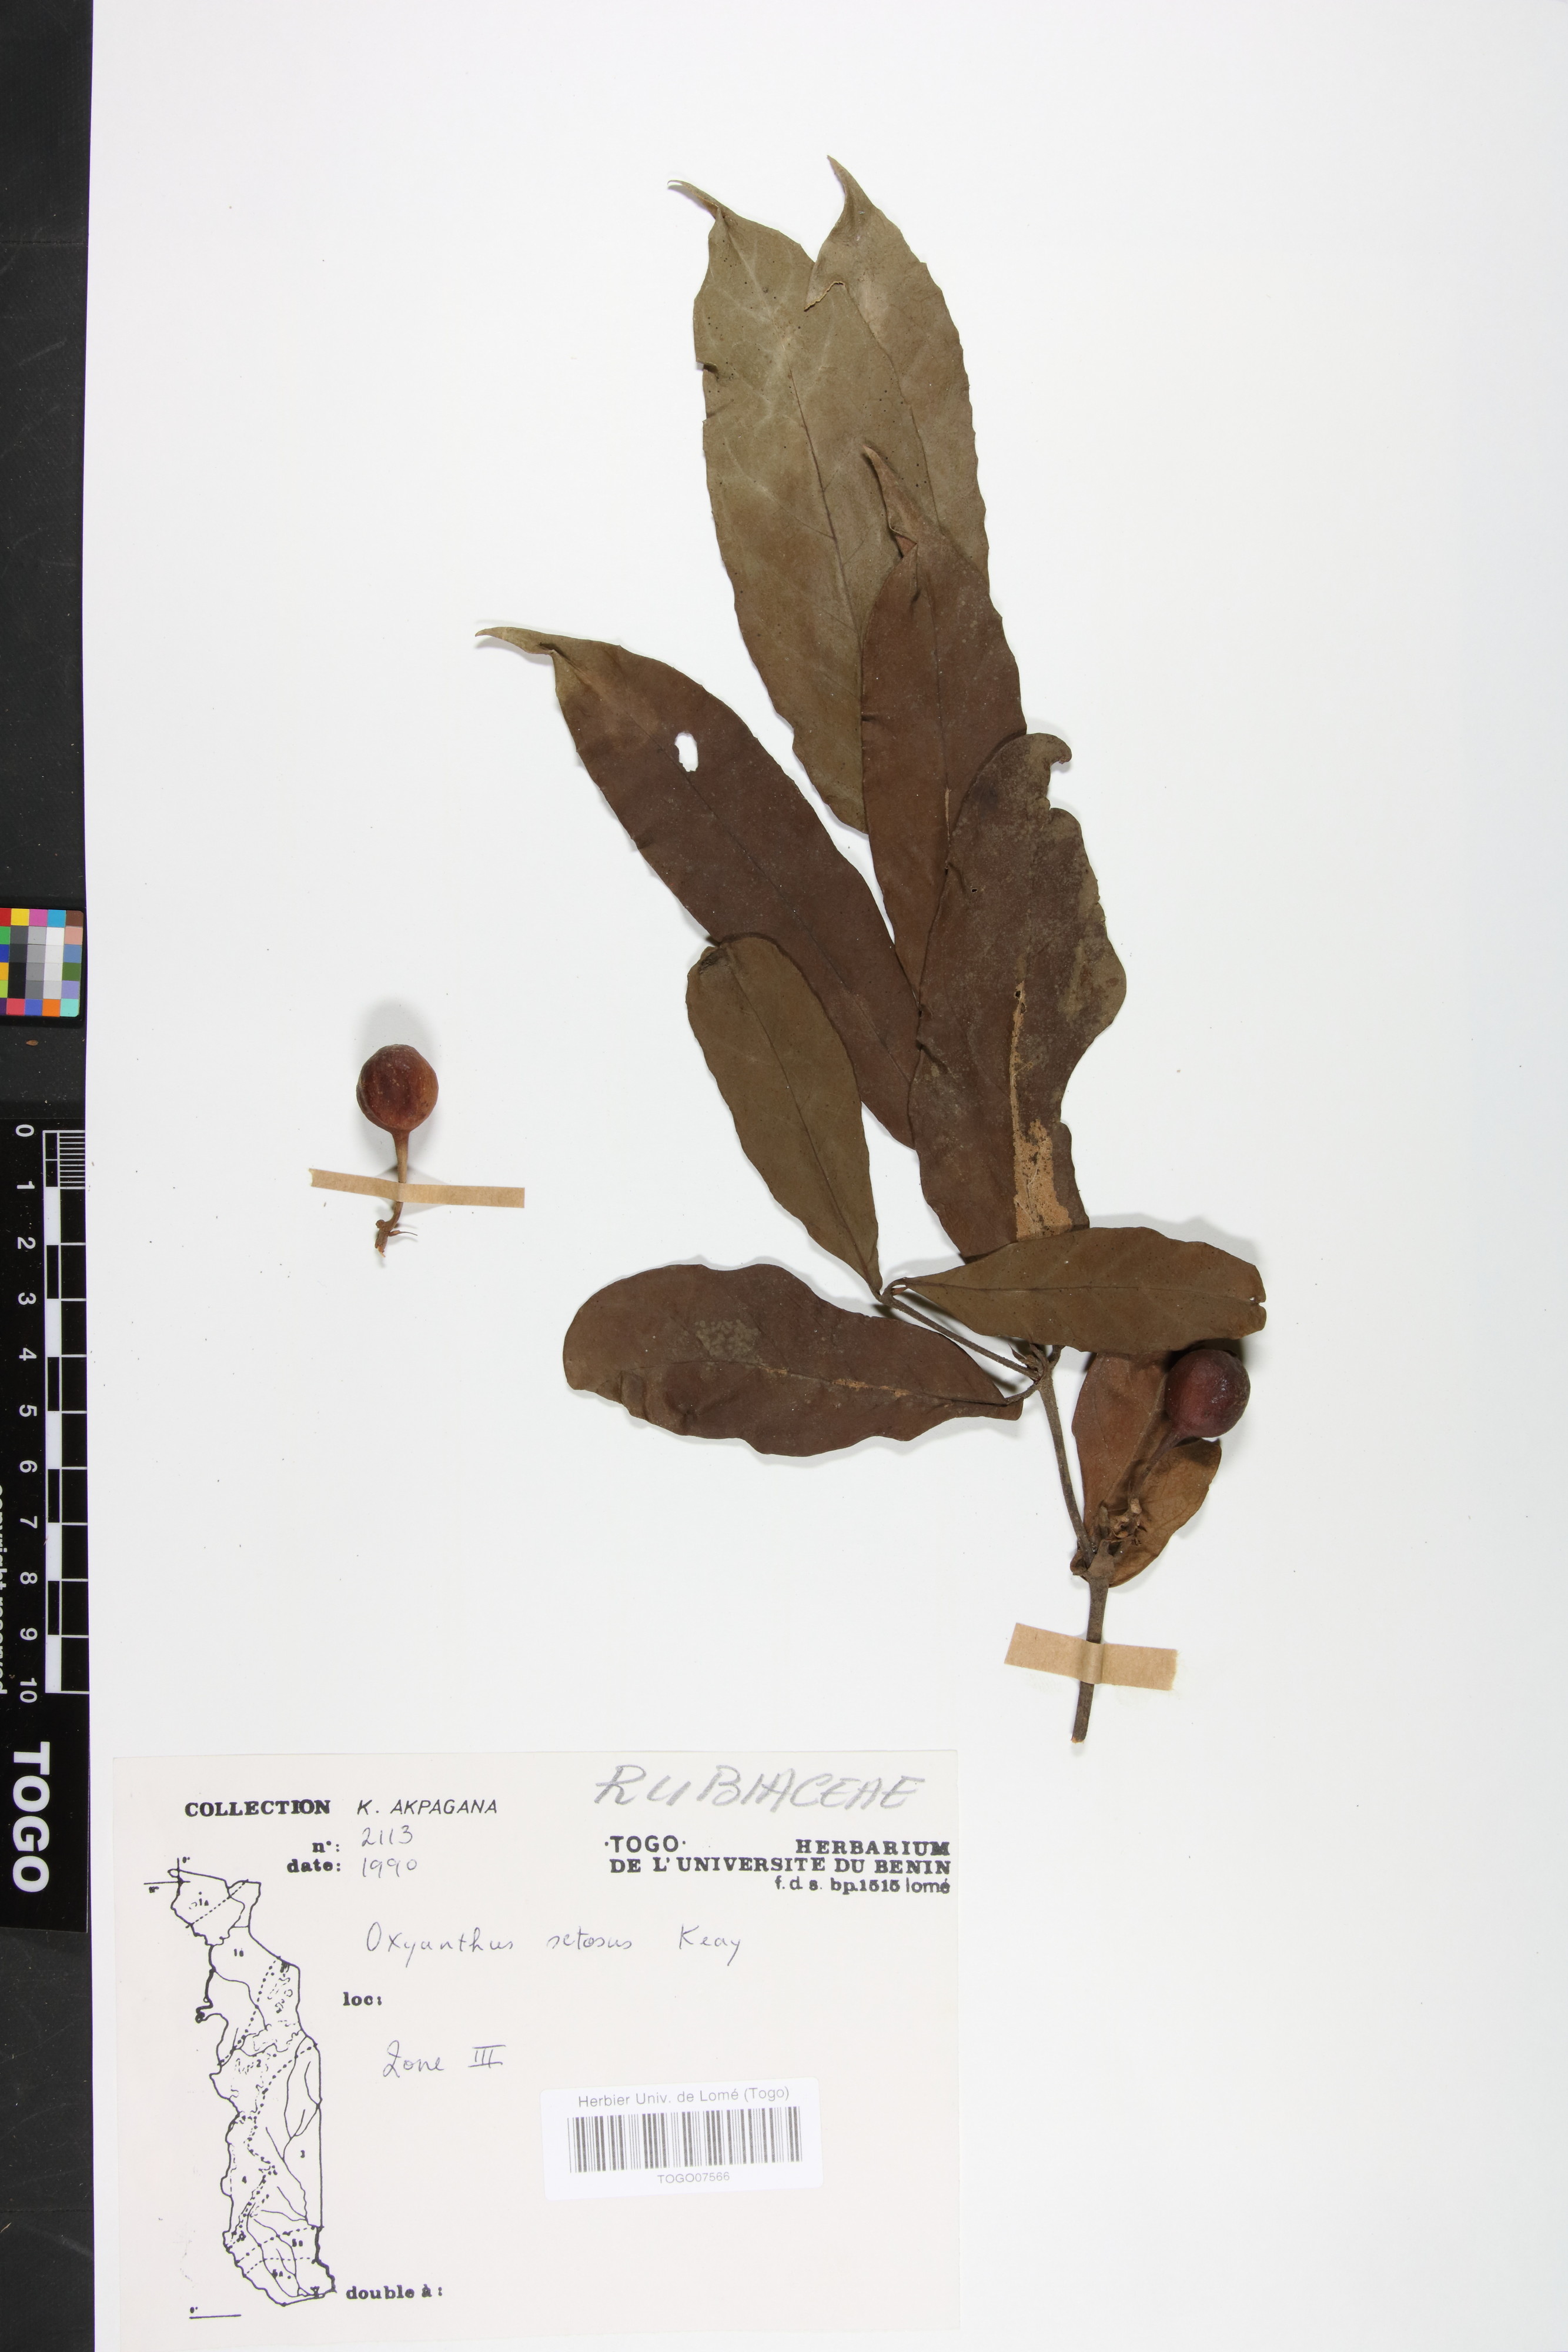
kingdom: Plantae
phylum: Tracheophyta
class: Magnoliopsida
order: Gentianales
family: Rubiaceae
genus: Oxyanthus
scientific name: Oxyanthus setosus
